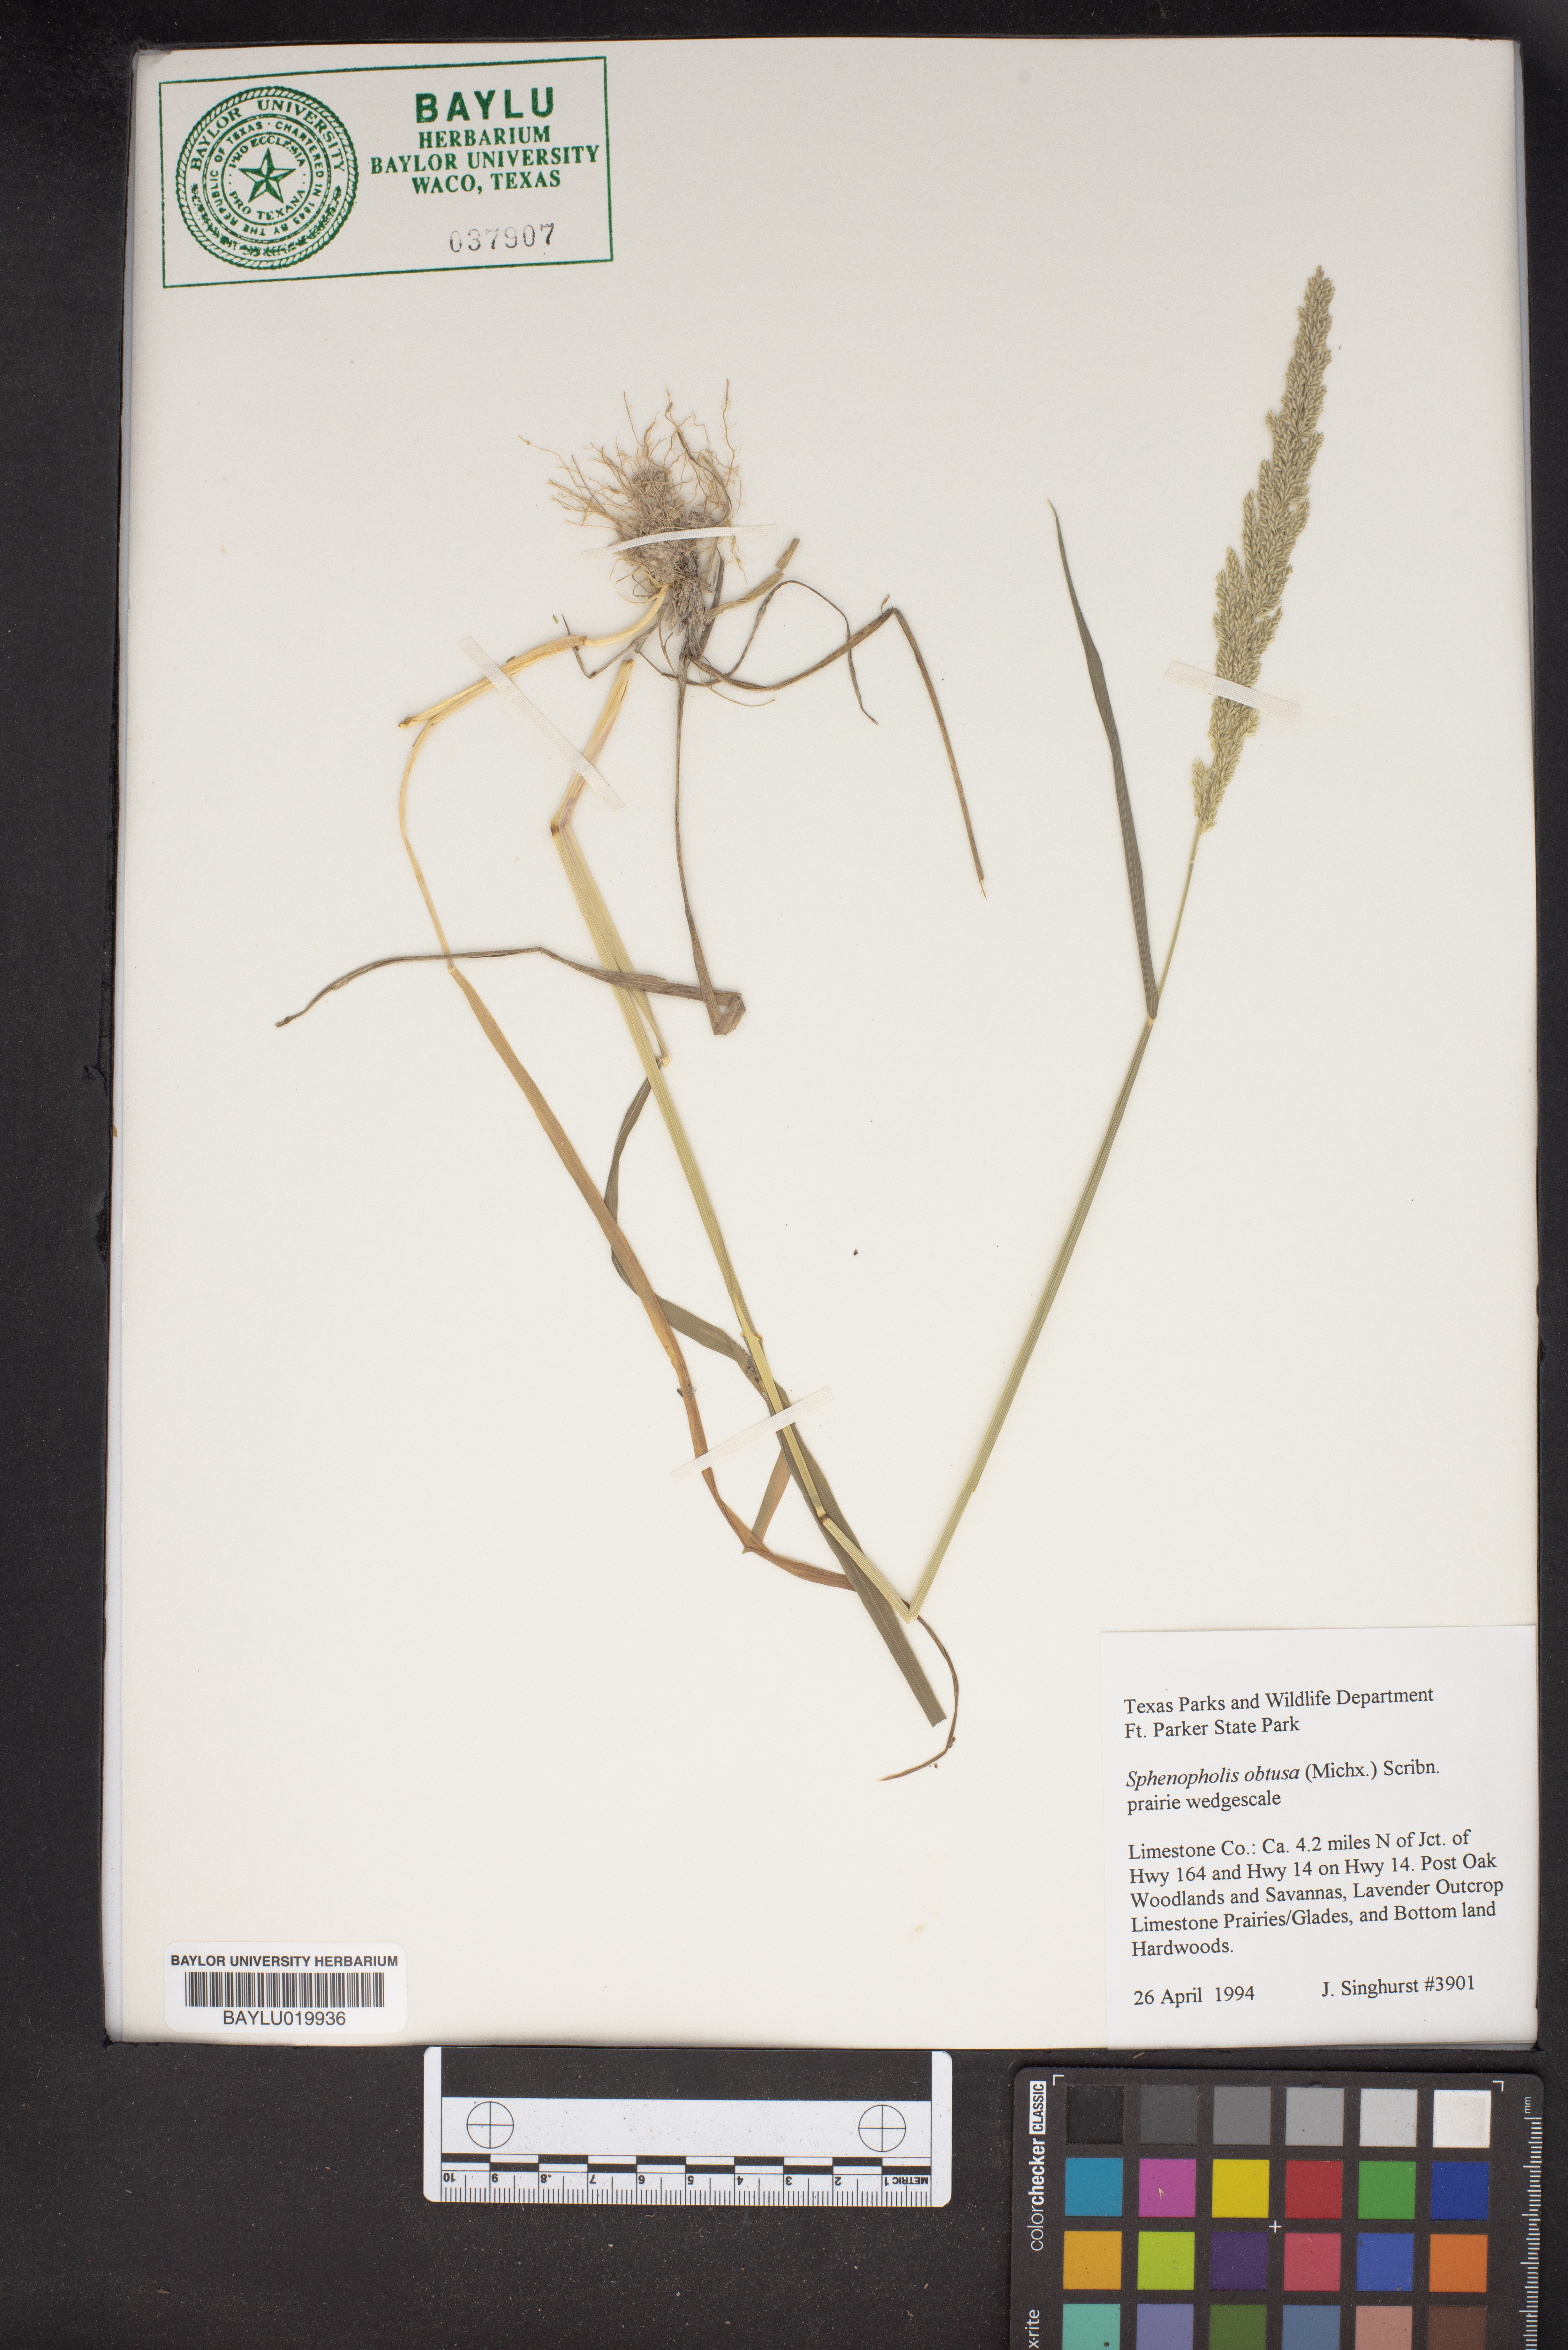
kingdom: Plantae
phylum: Tracheophyta
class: Liliopsida
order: Poales
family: Poaceae
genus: Sphenopholis
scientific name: Sphenopholis obtusata
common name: Prairie grass
